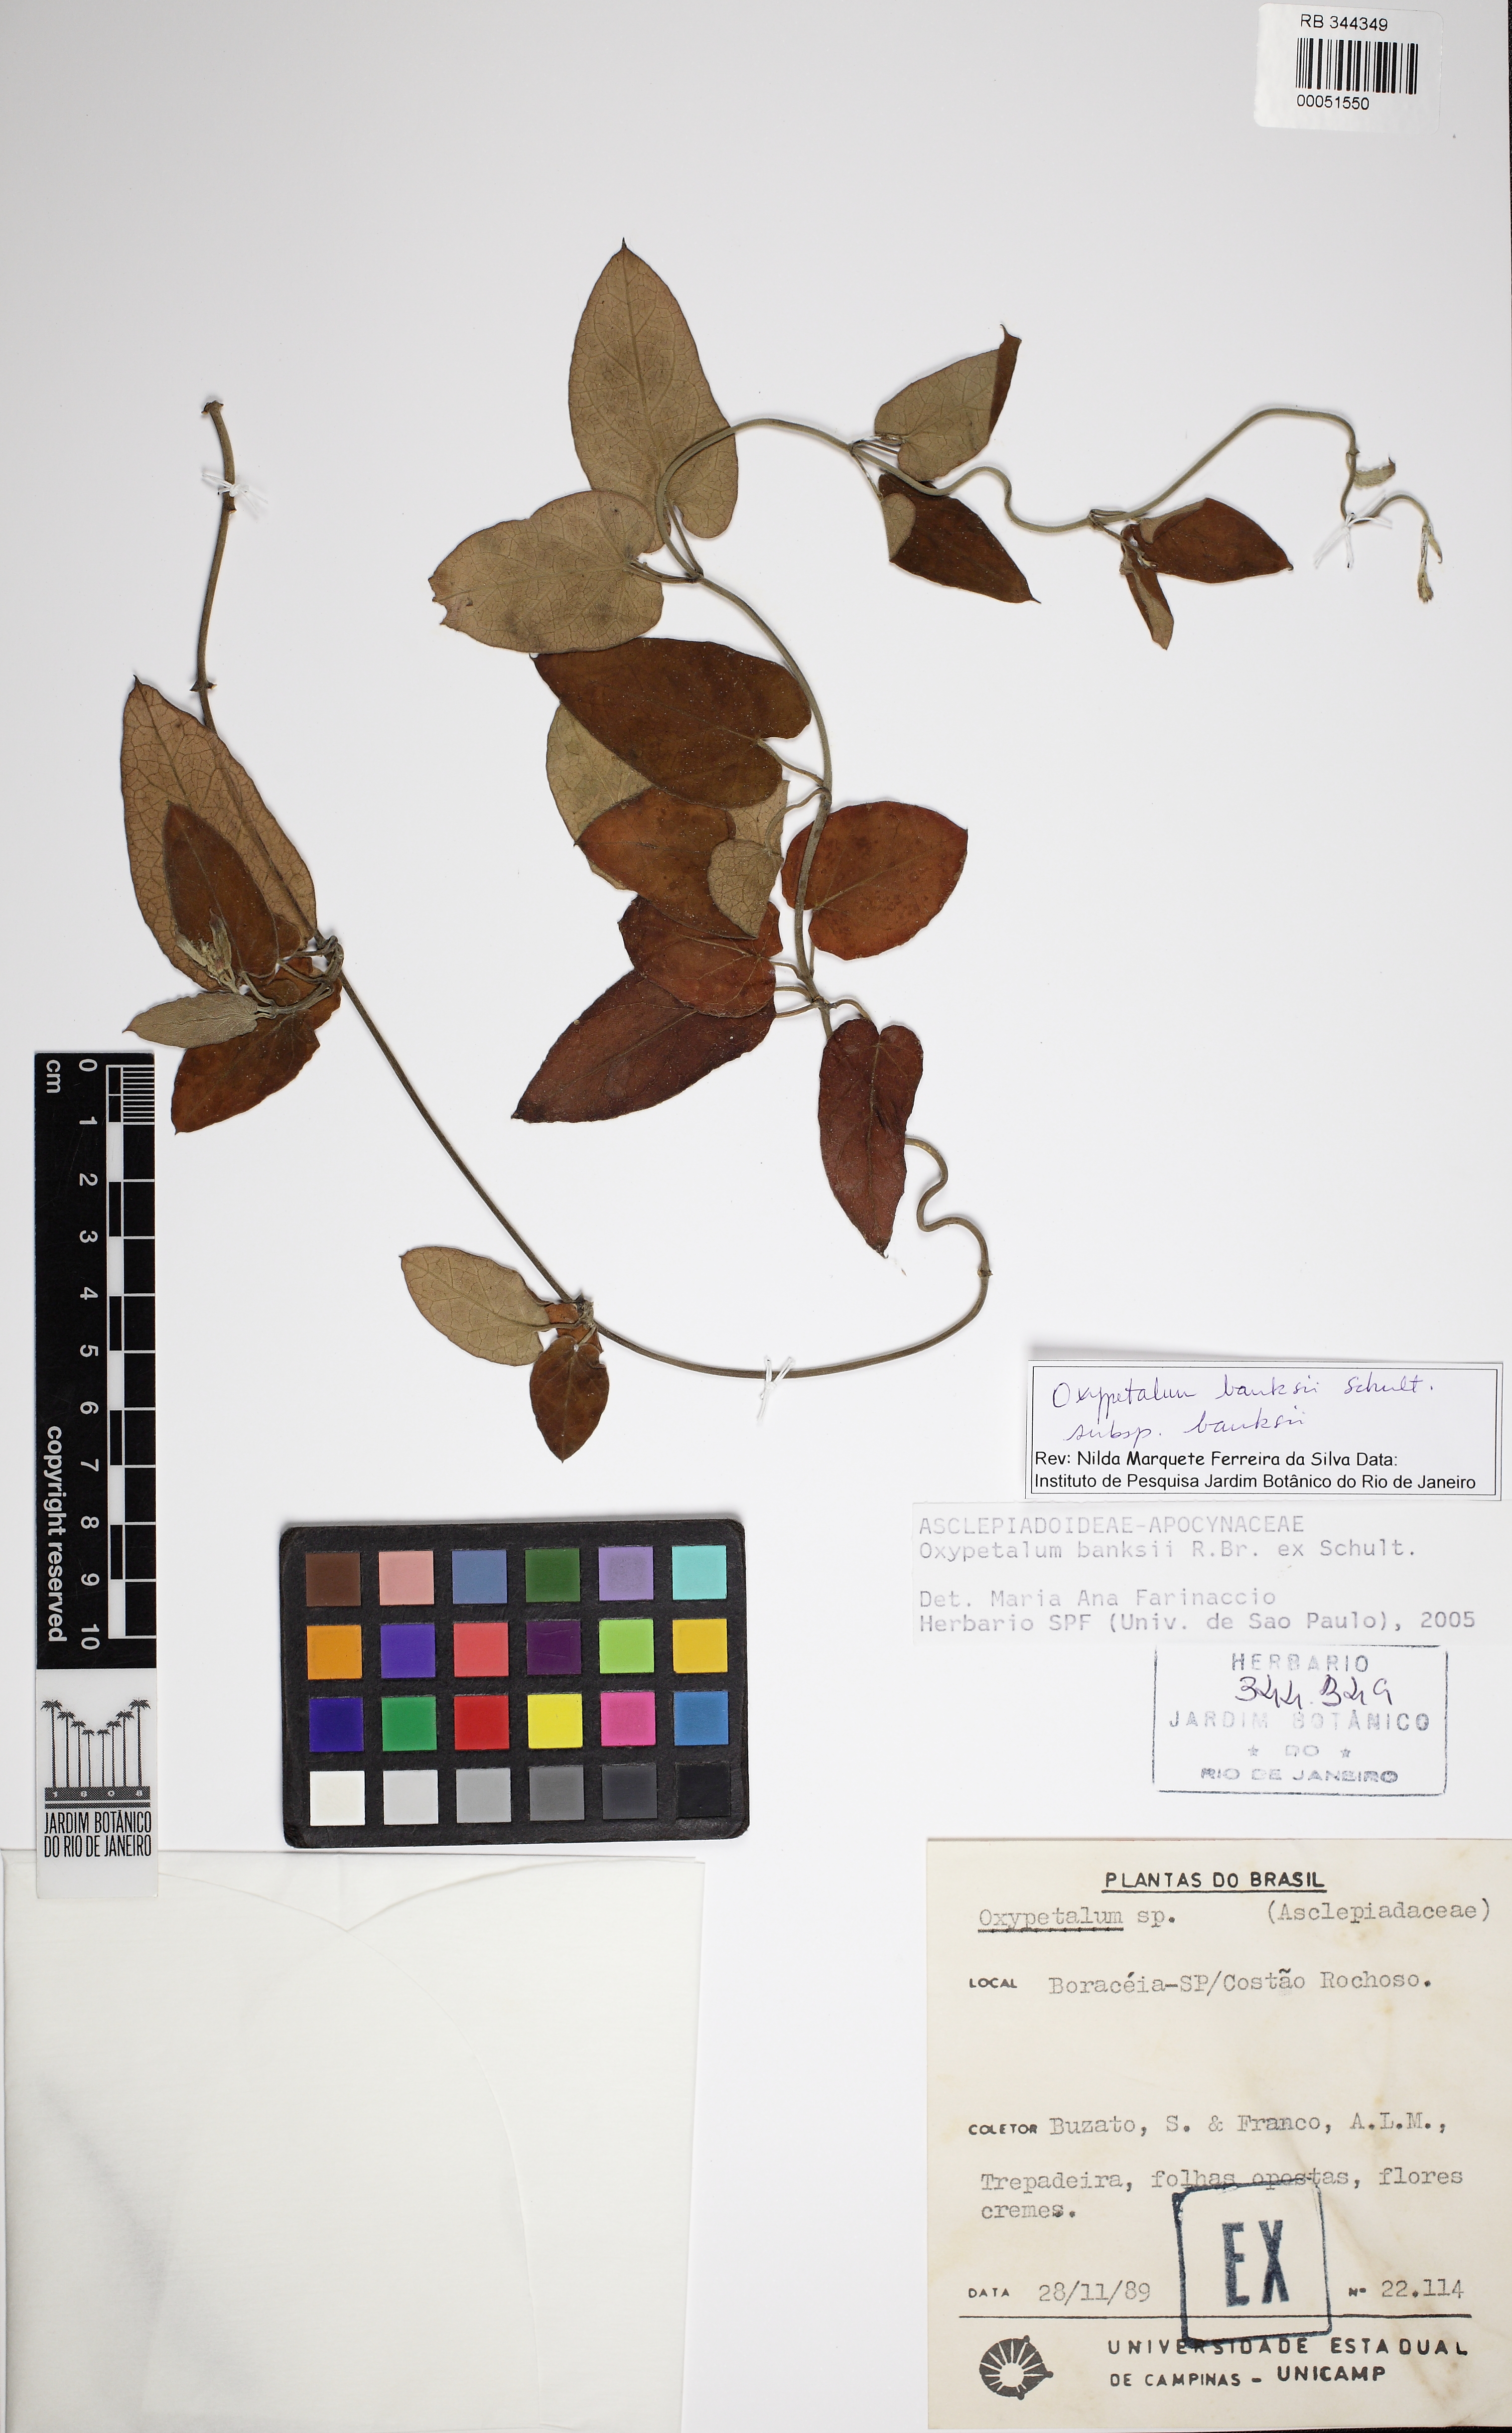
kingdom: Plantae
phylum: Tracheophyta
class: Magnoliopsida
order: Gentianales
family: Apocynaceae
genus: Oxypetalum
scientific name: Oxypetalum banksii
